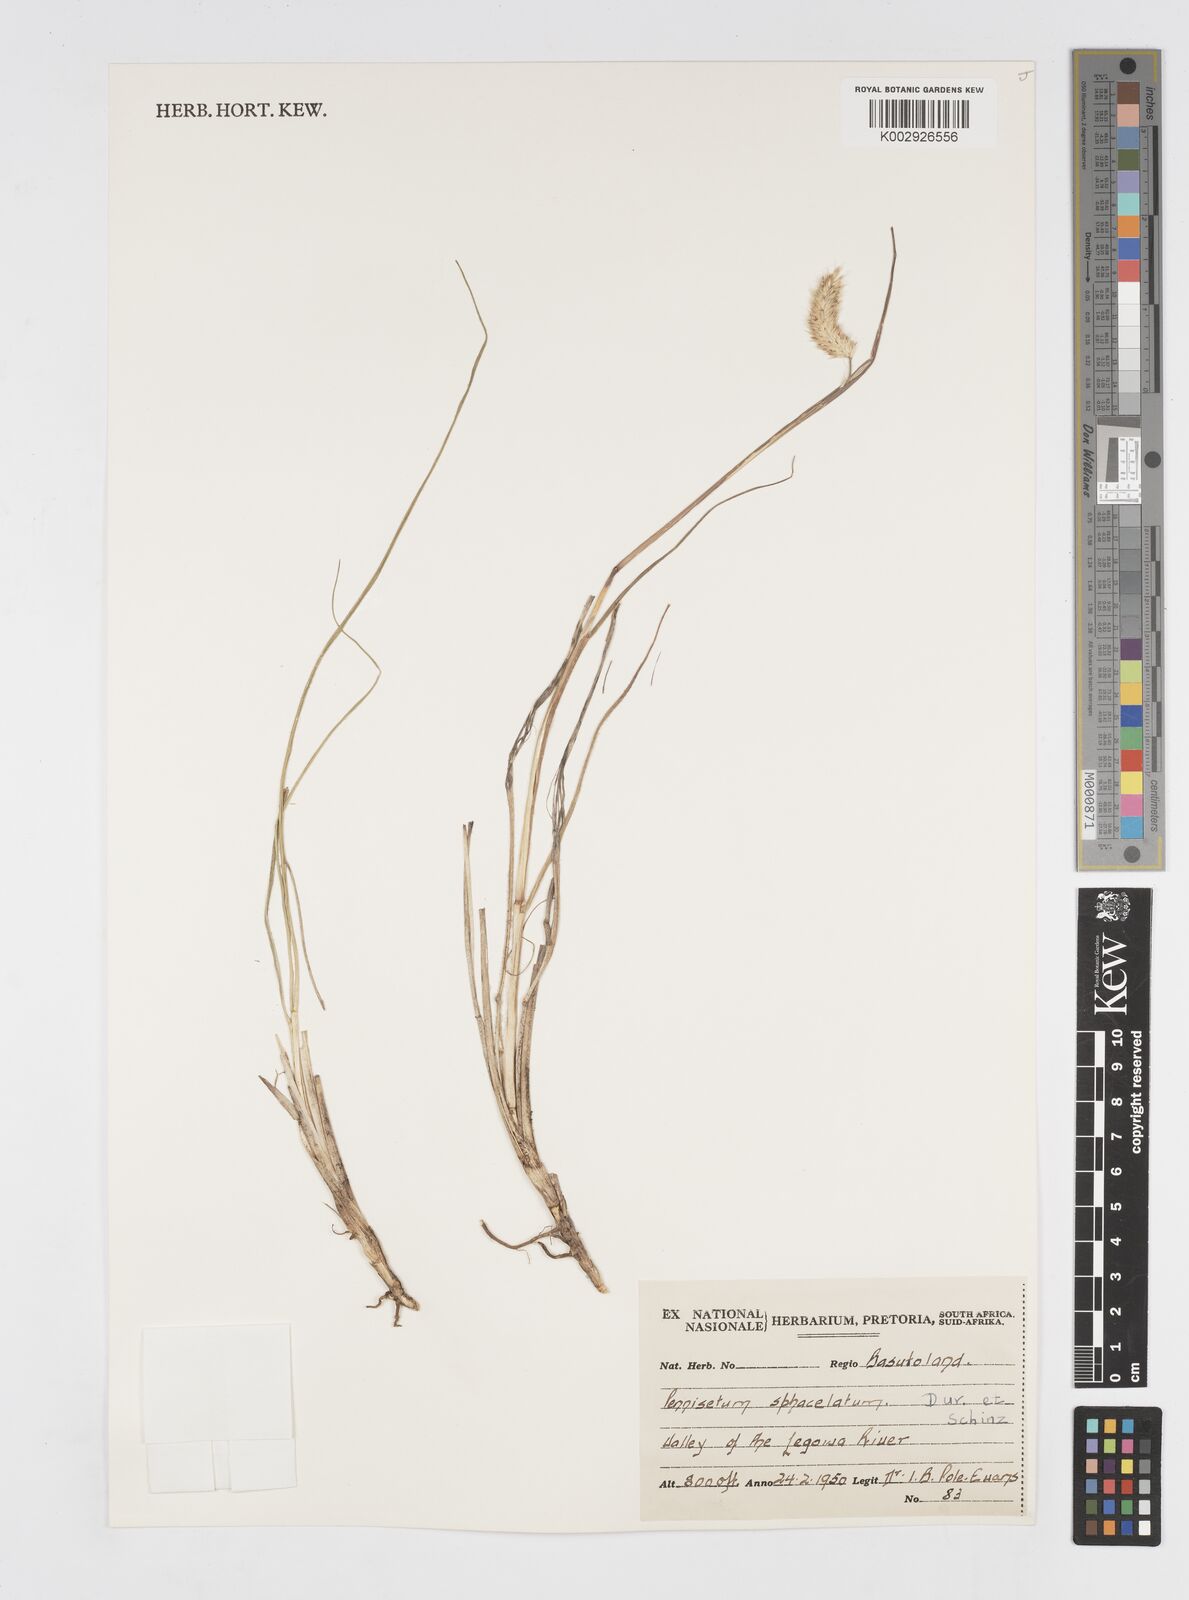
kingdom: Plantae
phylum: Tracheophyta
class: Liliopsida
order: Poales
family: Poaceae
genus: Cenchrus
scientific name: Cenchrus sphacelatus
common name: Bulgras
